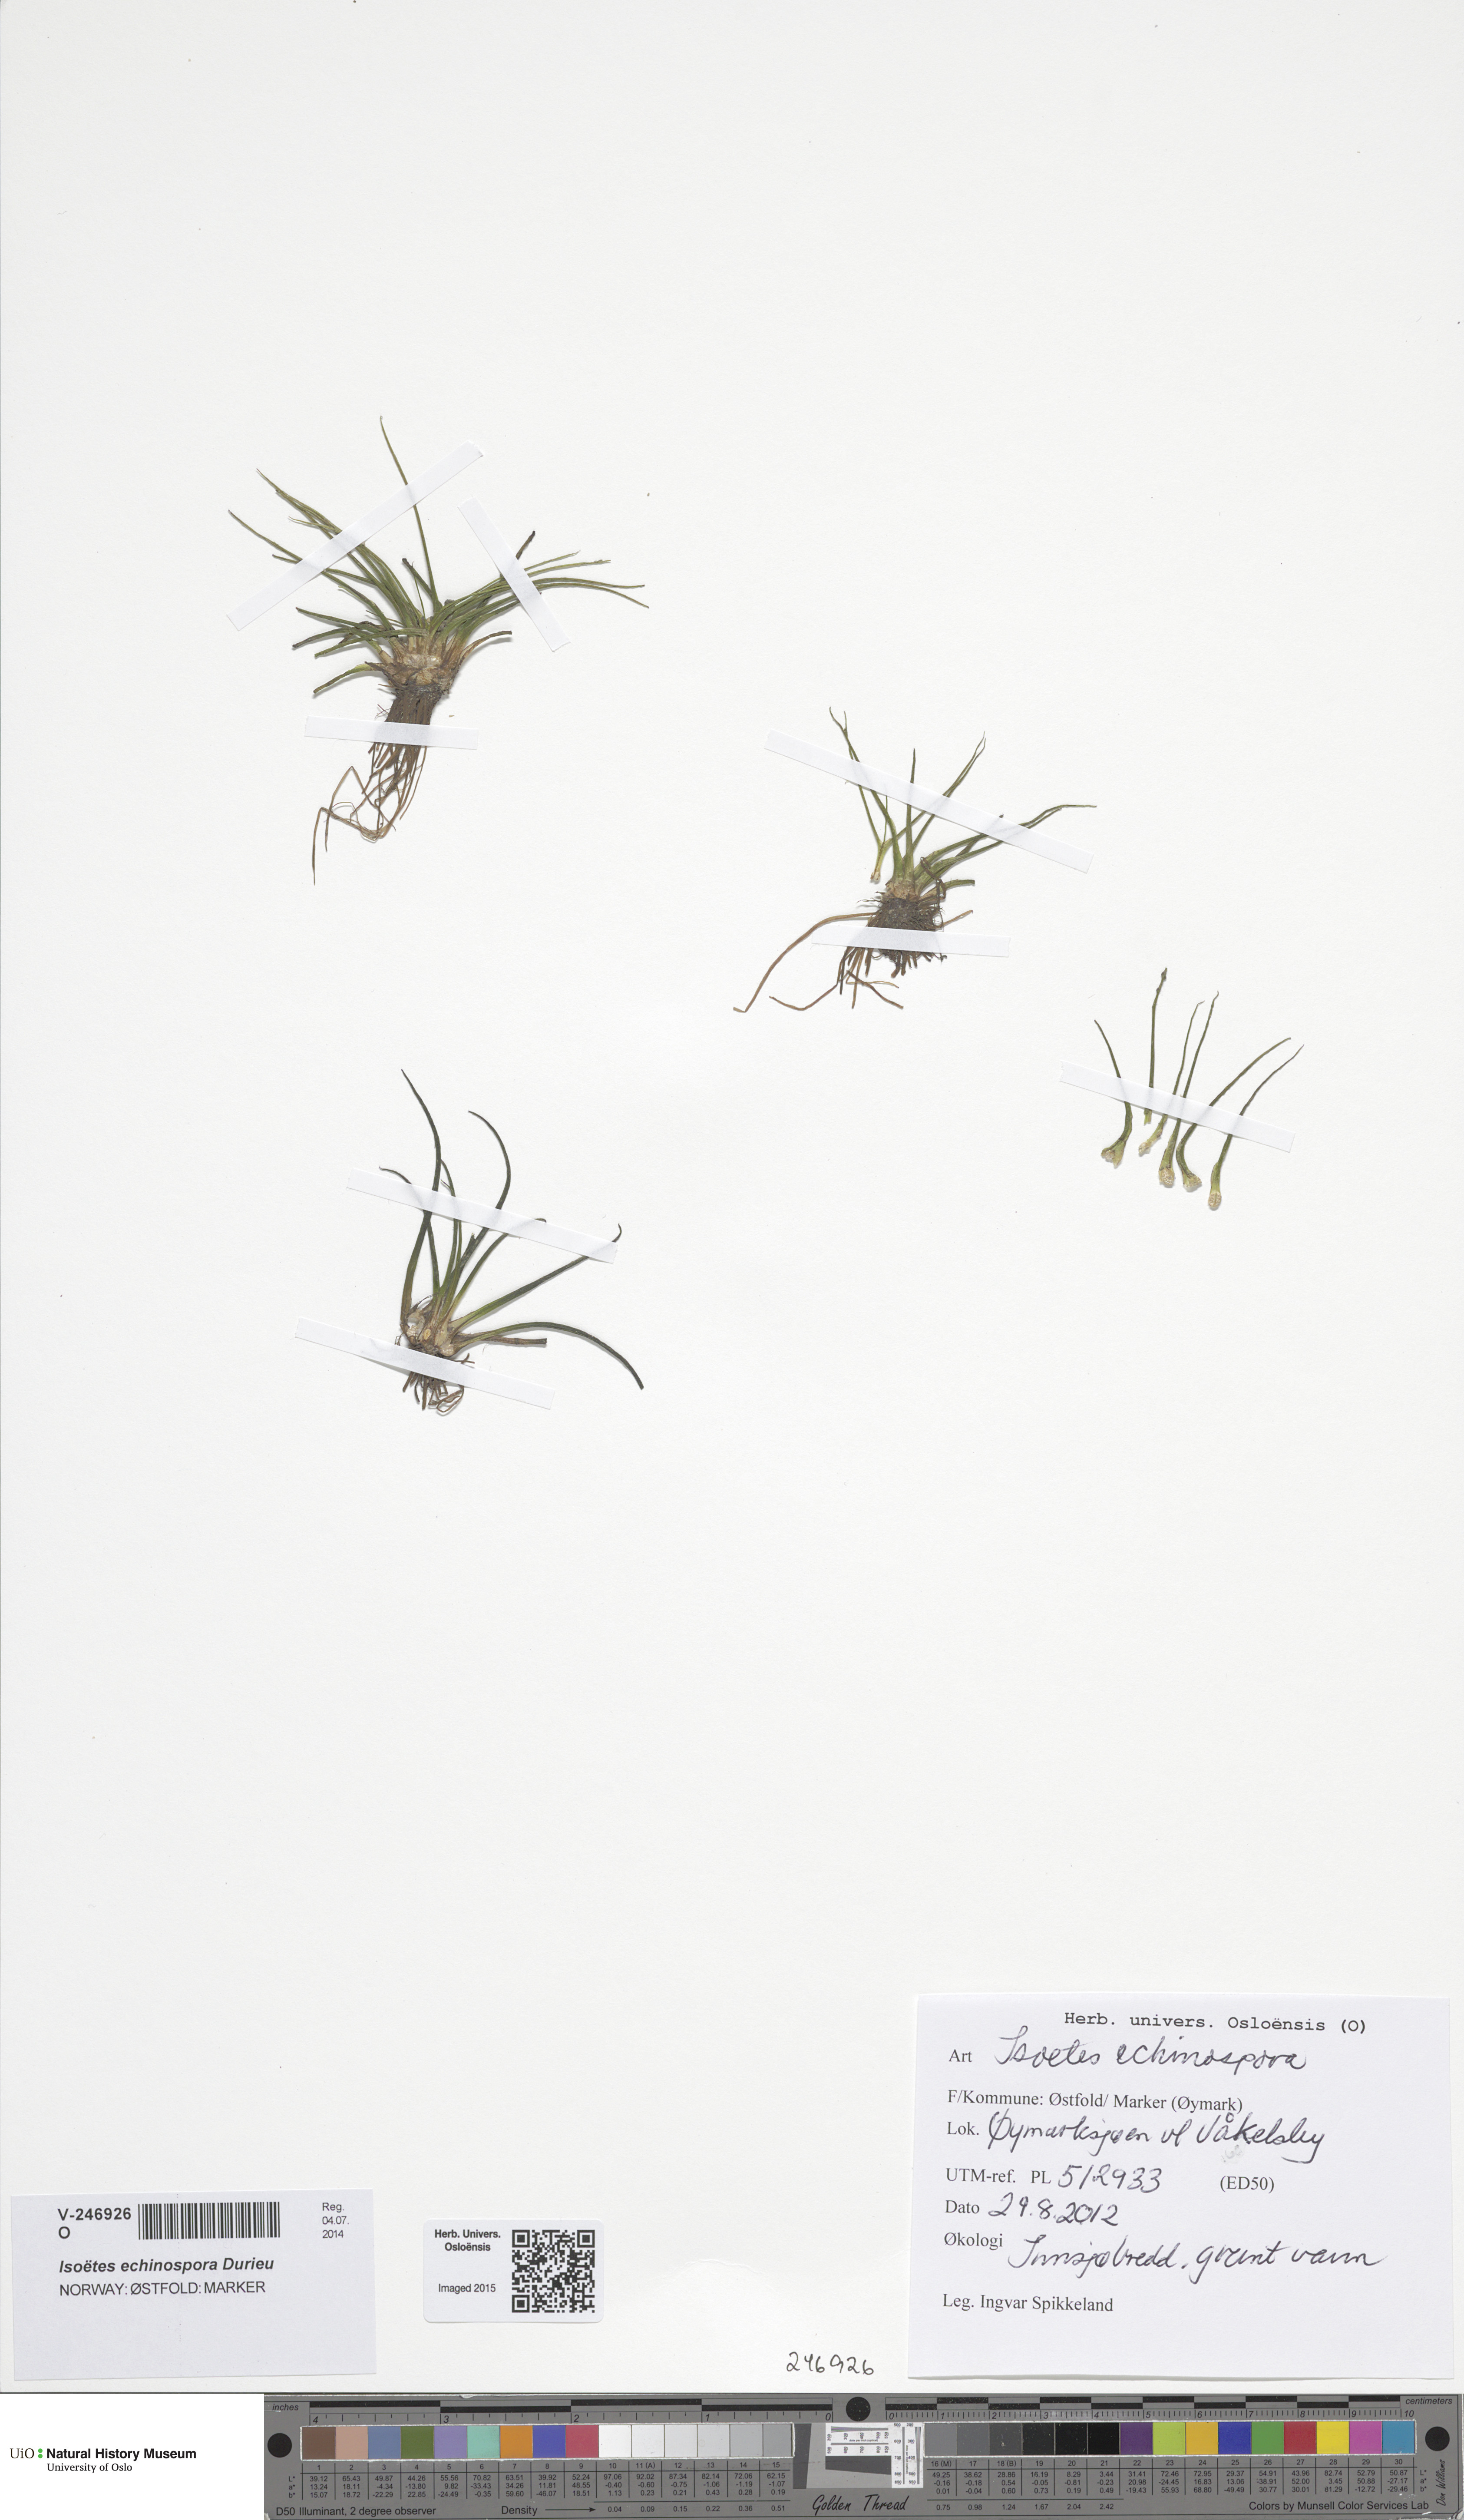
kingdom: Plantae
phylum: Tracheophyta
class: Lycopodiopsida
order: Isoetales
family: Isoetaceae
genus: Isoetes
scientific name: Isoetes echinospora
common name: Spring quillwort
